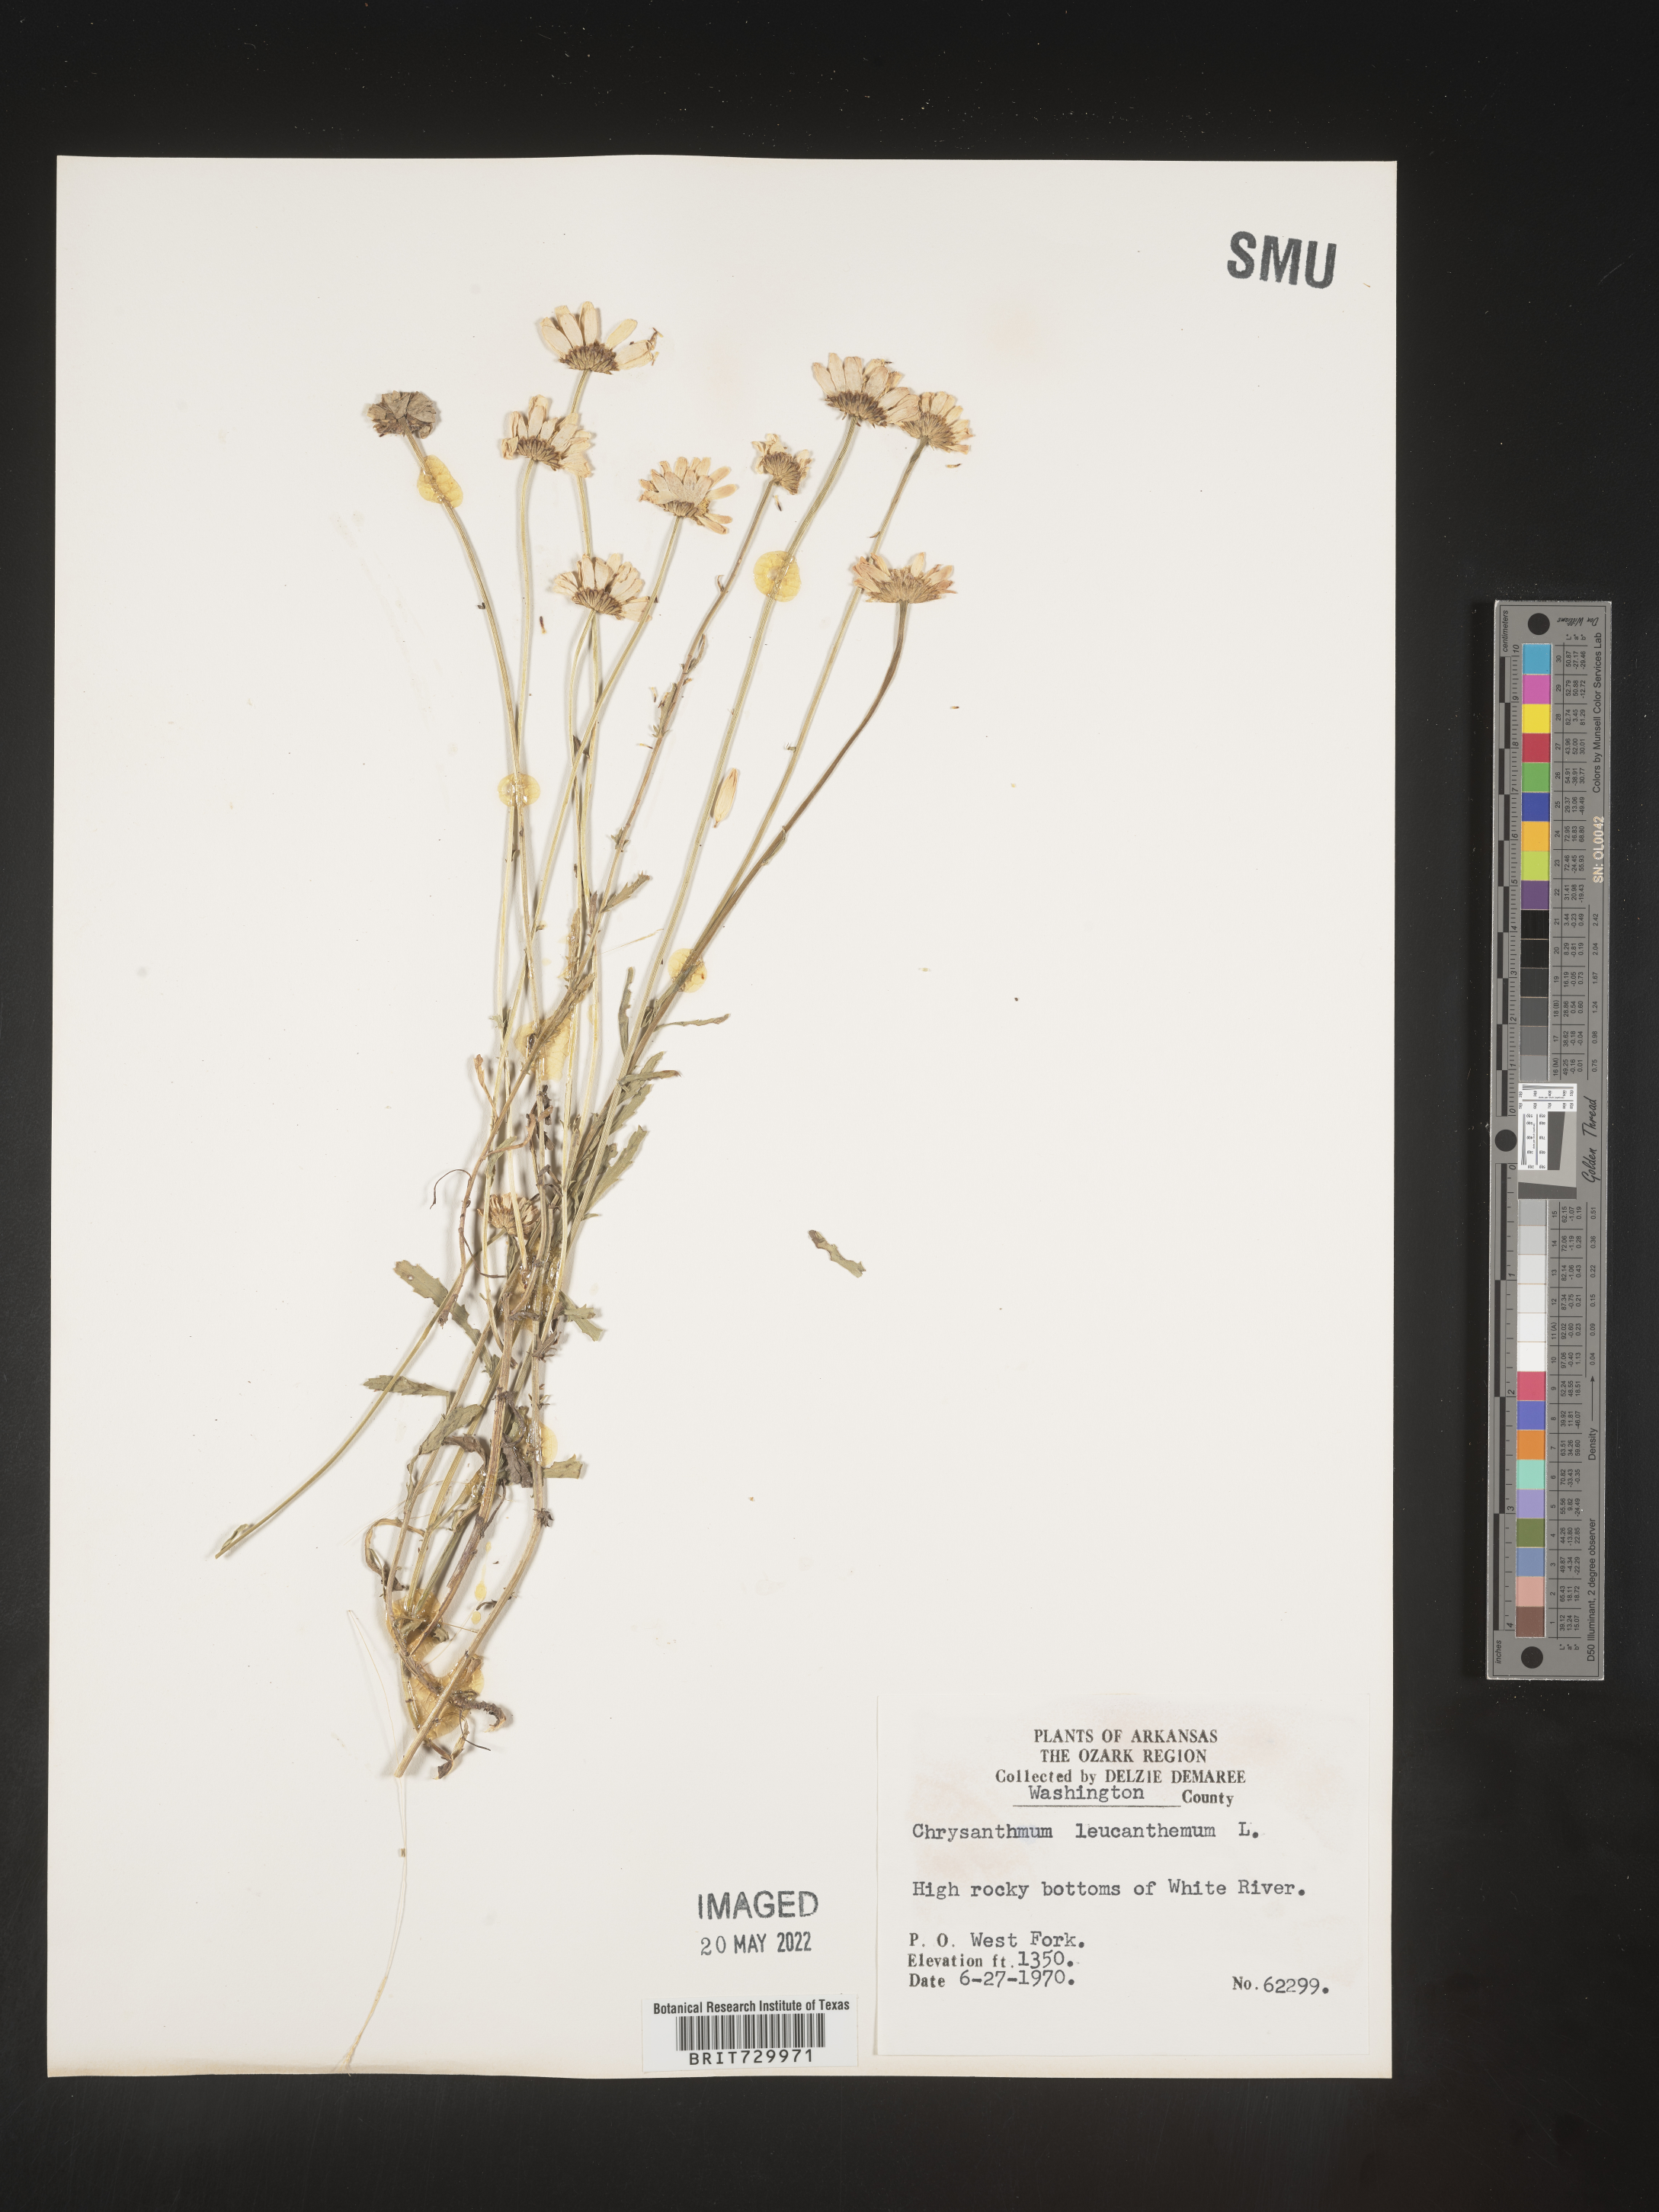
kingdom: Plantae
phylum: Tracheophyta
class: Magnoliopsida
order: Asterales
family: Asteraceae
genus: Leucanthemum
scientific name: Leucanthemum vulgare
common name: Oxeye daisy
